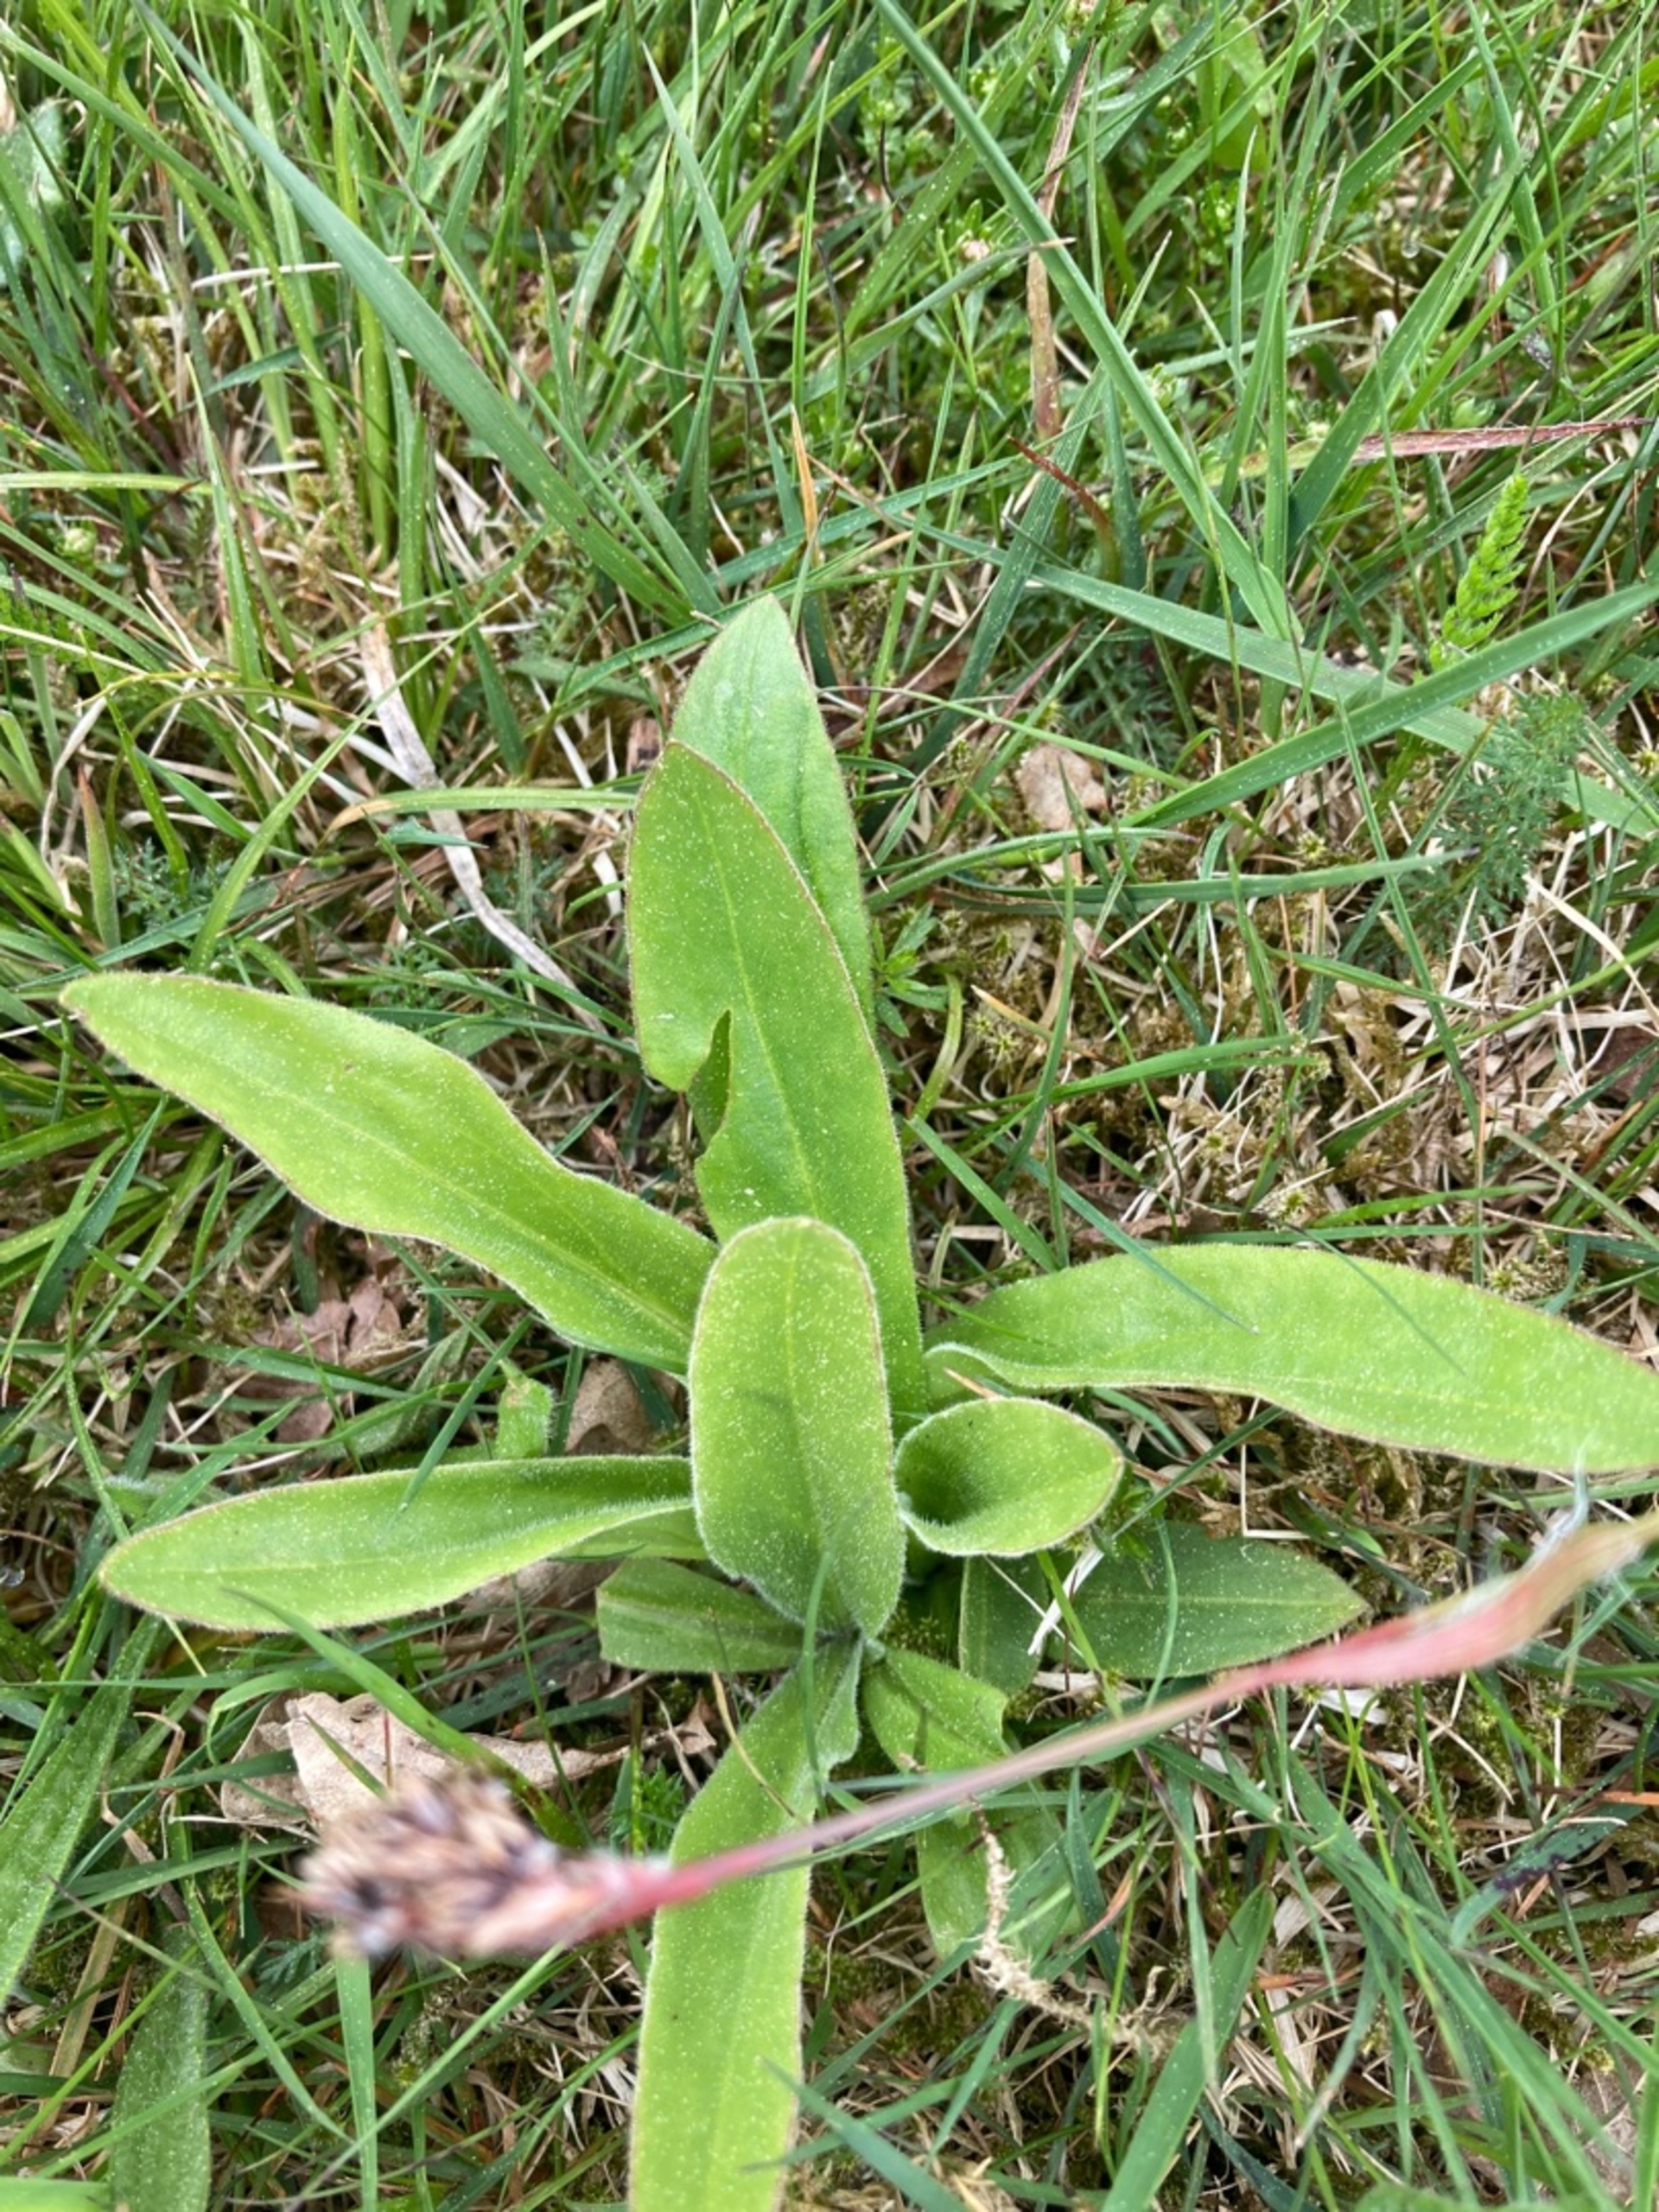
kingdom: Plantae
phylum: Tracheophyta
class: Magnoliopsida
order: Asterales
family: Asteraceae
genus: Arnica
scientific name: Arnica montana
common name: Guldblomme
